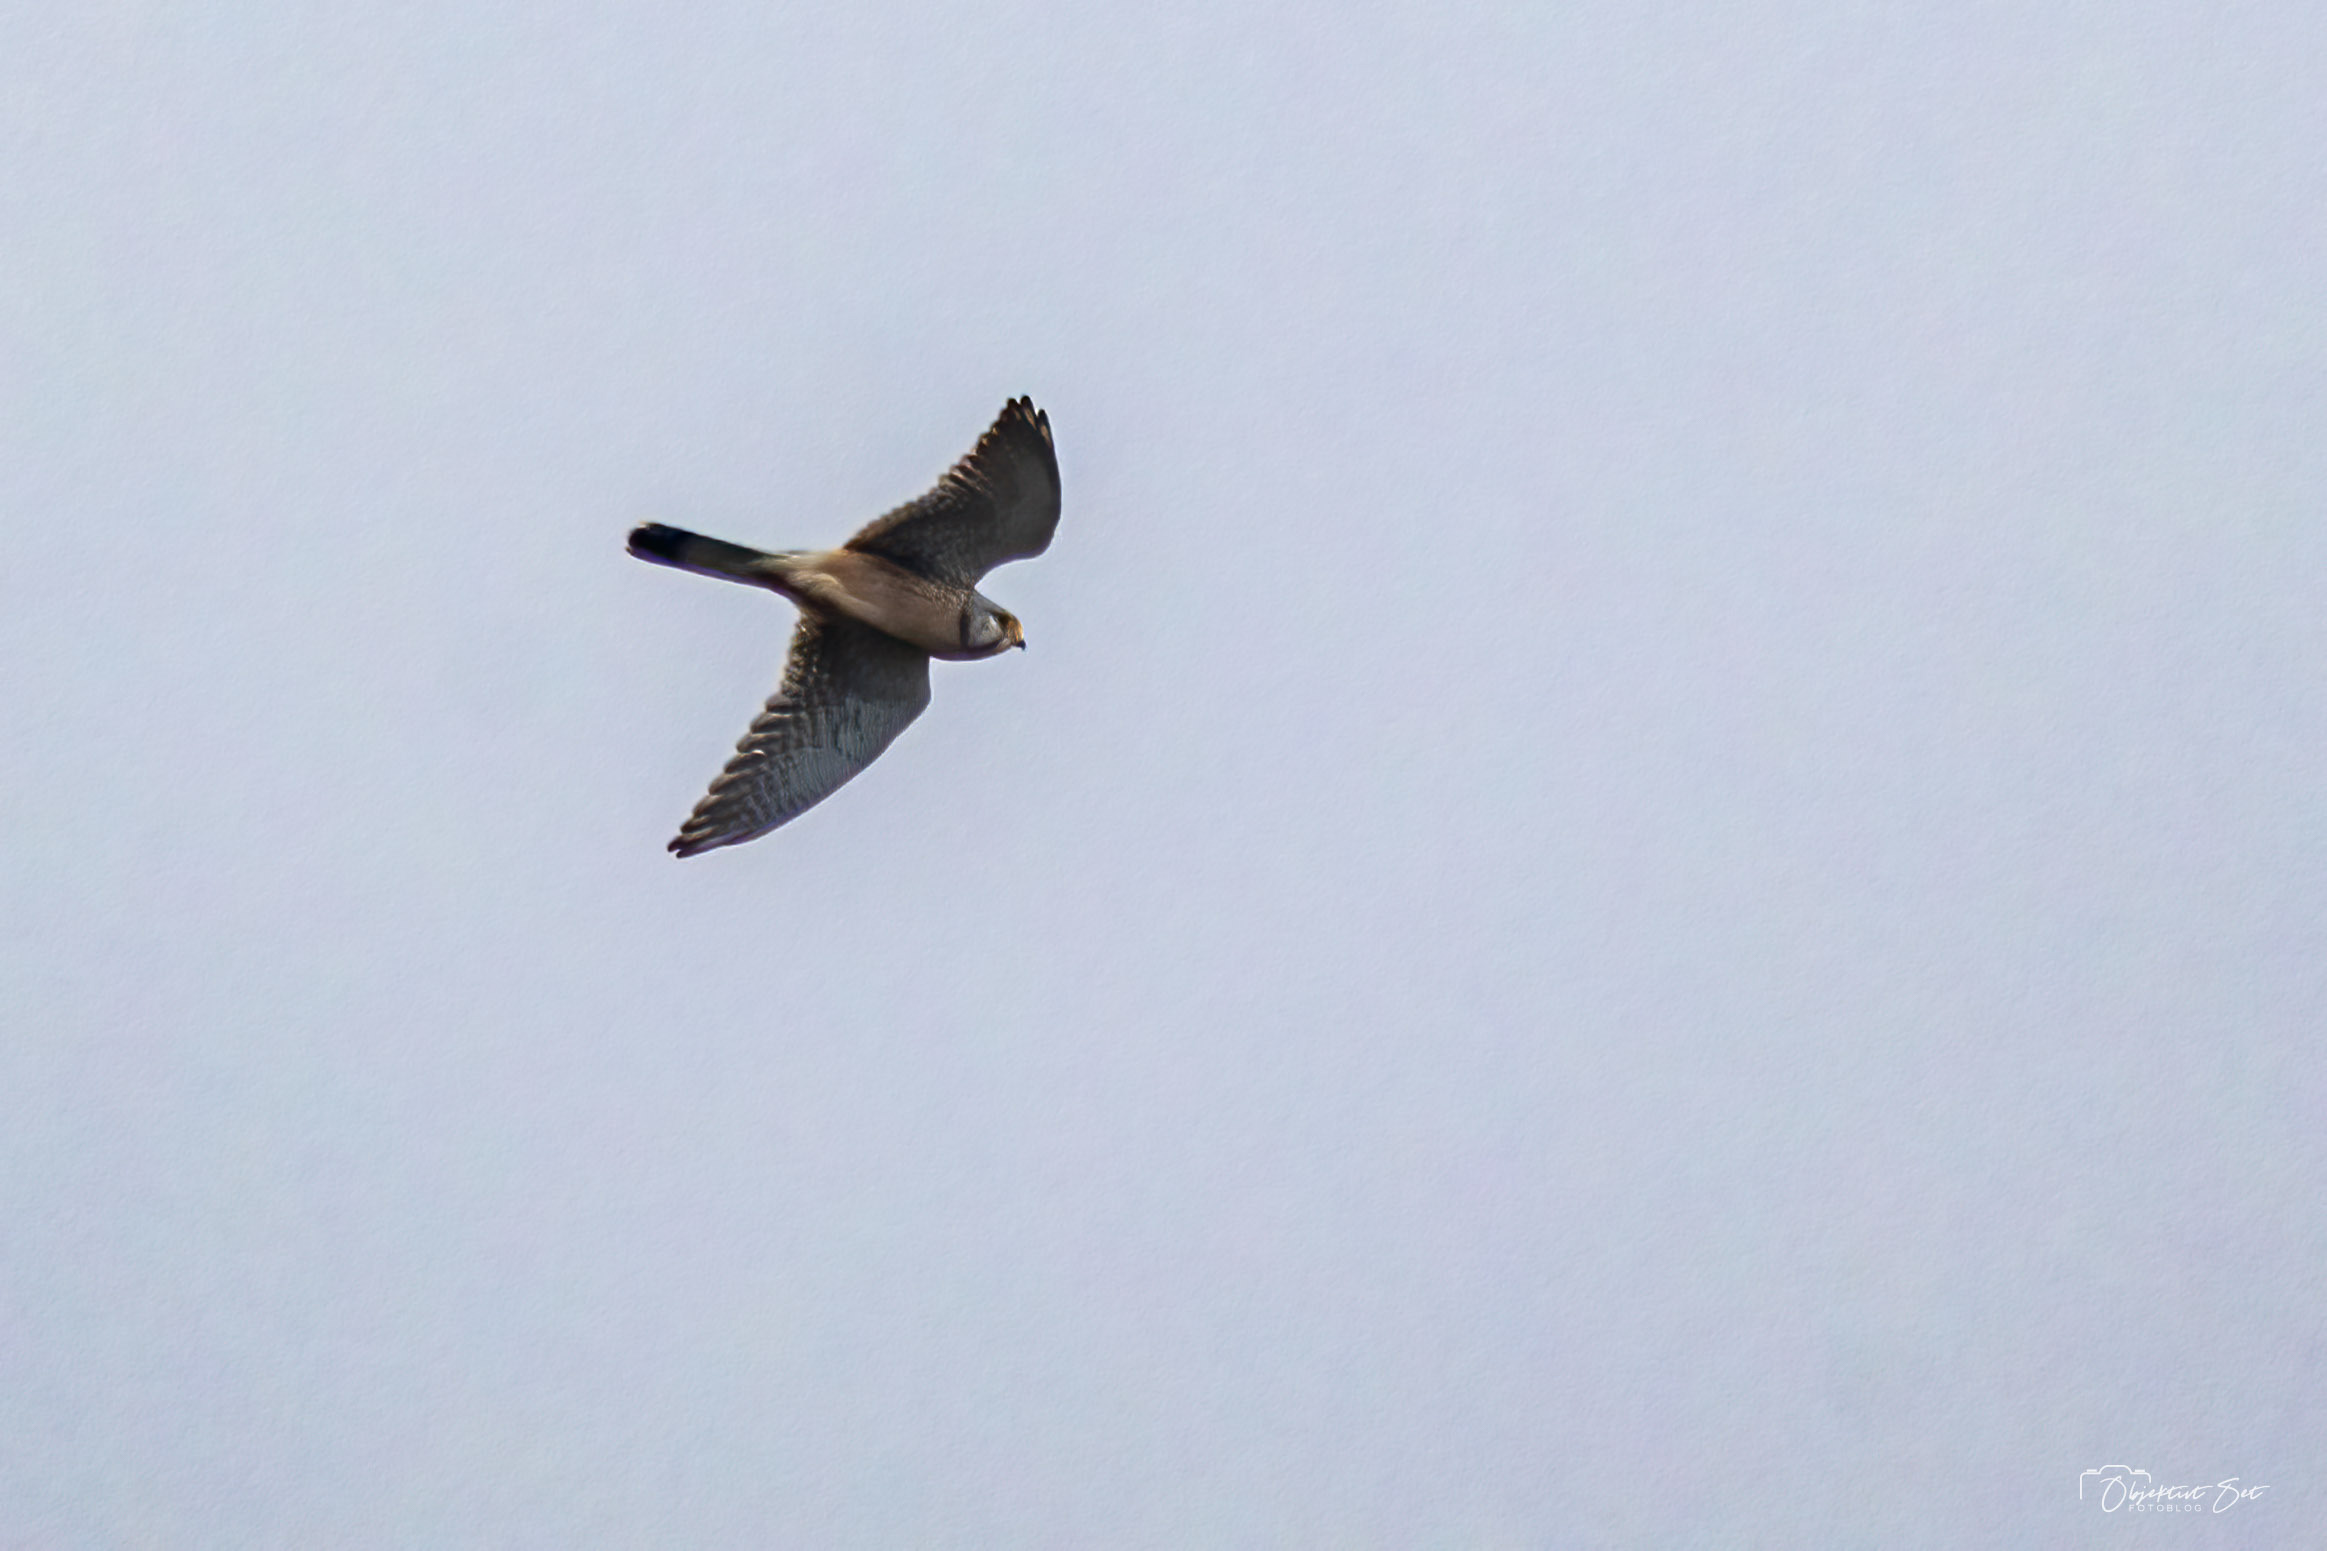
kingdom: Animalia
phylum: Chordata
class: Aves
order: Falconiformes
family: Falconidae
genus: Falco
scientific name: Falco tinnunculus
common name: Tårnfalk
